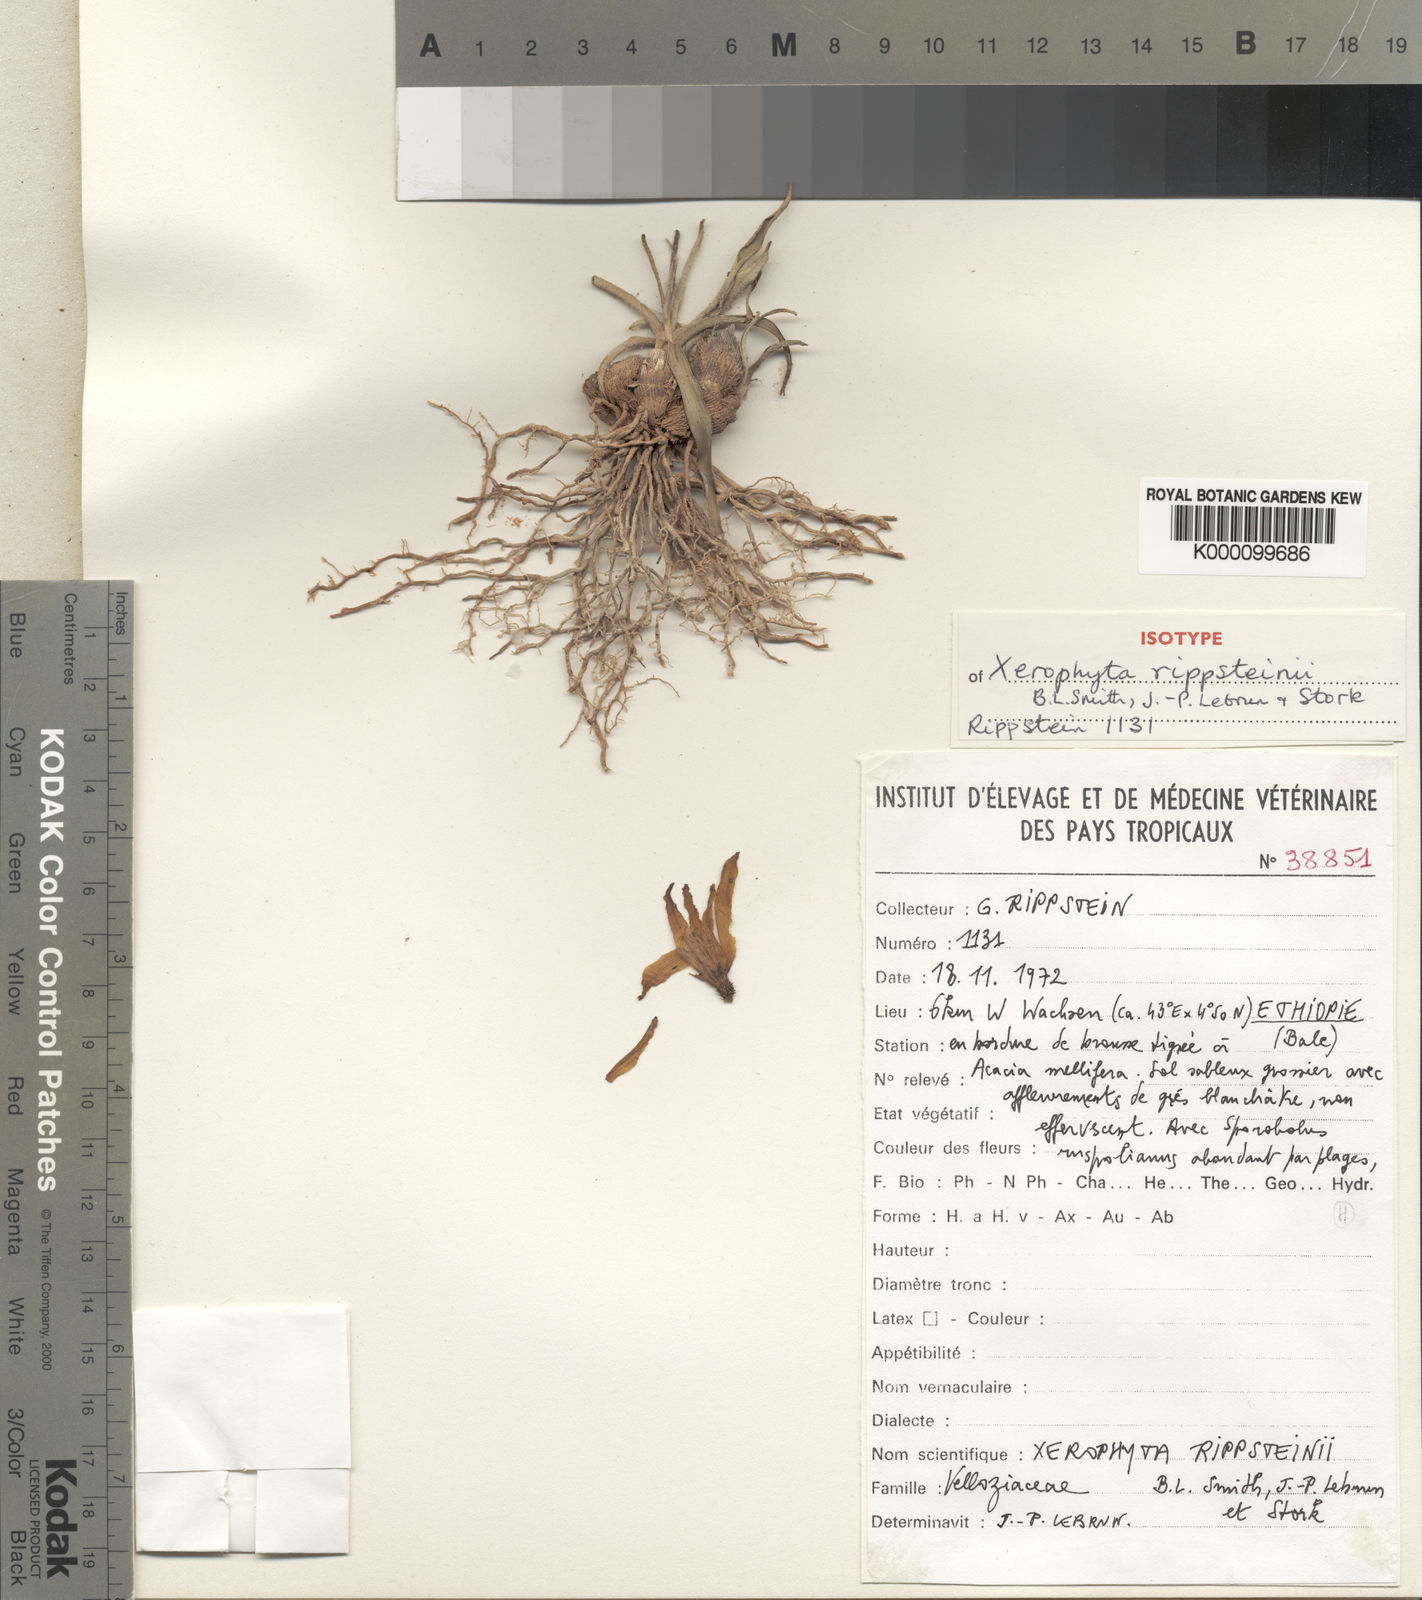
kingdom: Plantae
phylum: Tracheophyta
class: Liliopsida
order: Pandanales
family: Velloziaceae
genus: Xerophyta
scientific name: Xerophyta rippsteinii
